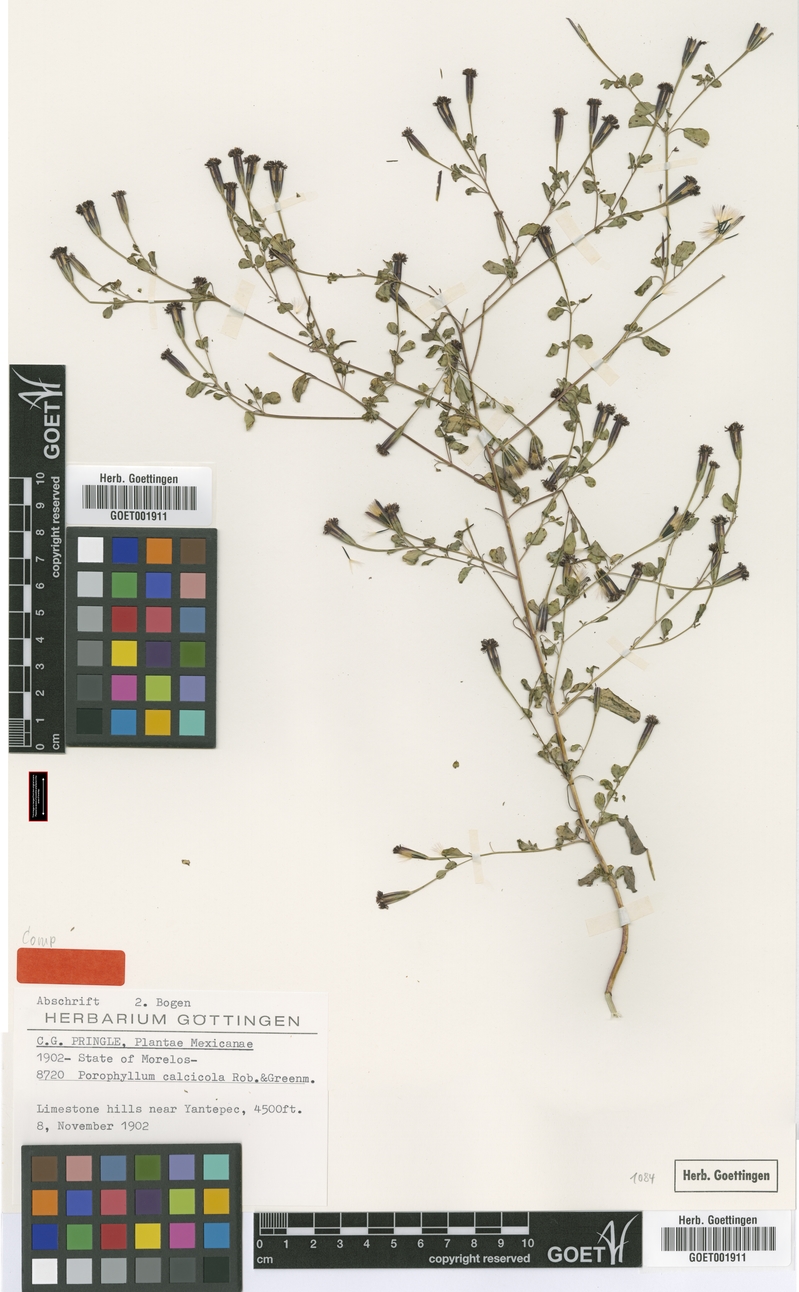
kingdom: Plantae
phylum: Tracheophyta
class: Magnoliopsida
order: Asterales
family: Asteraceae
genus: Porophyllum
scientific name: Porophyllum calcicola
